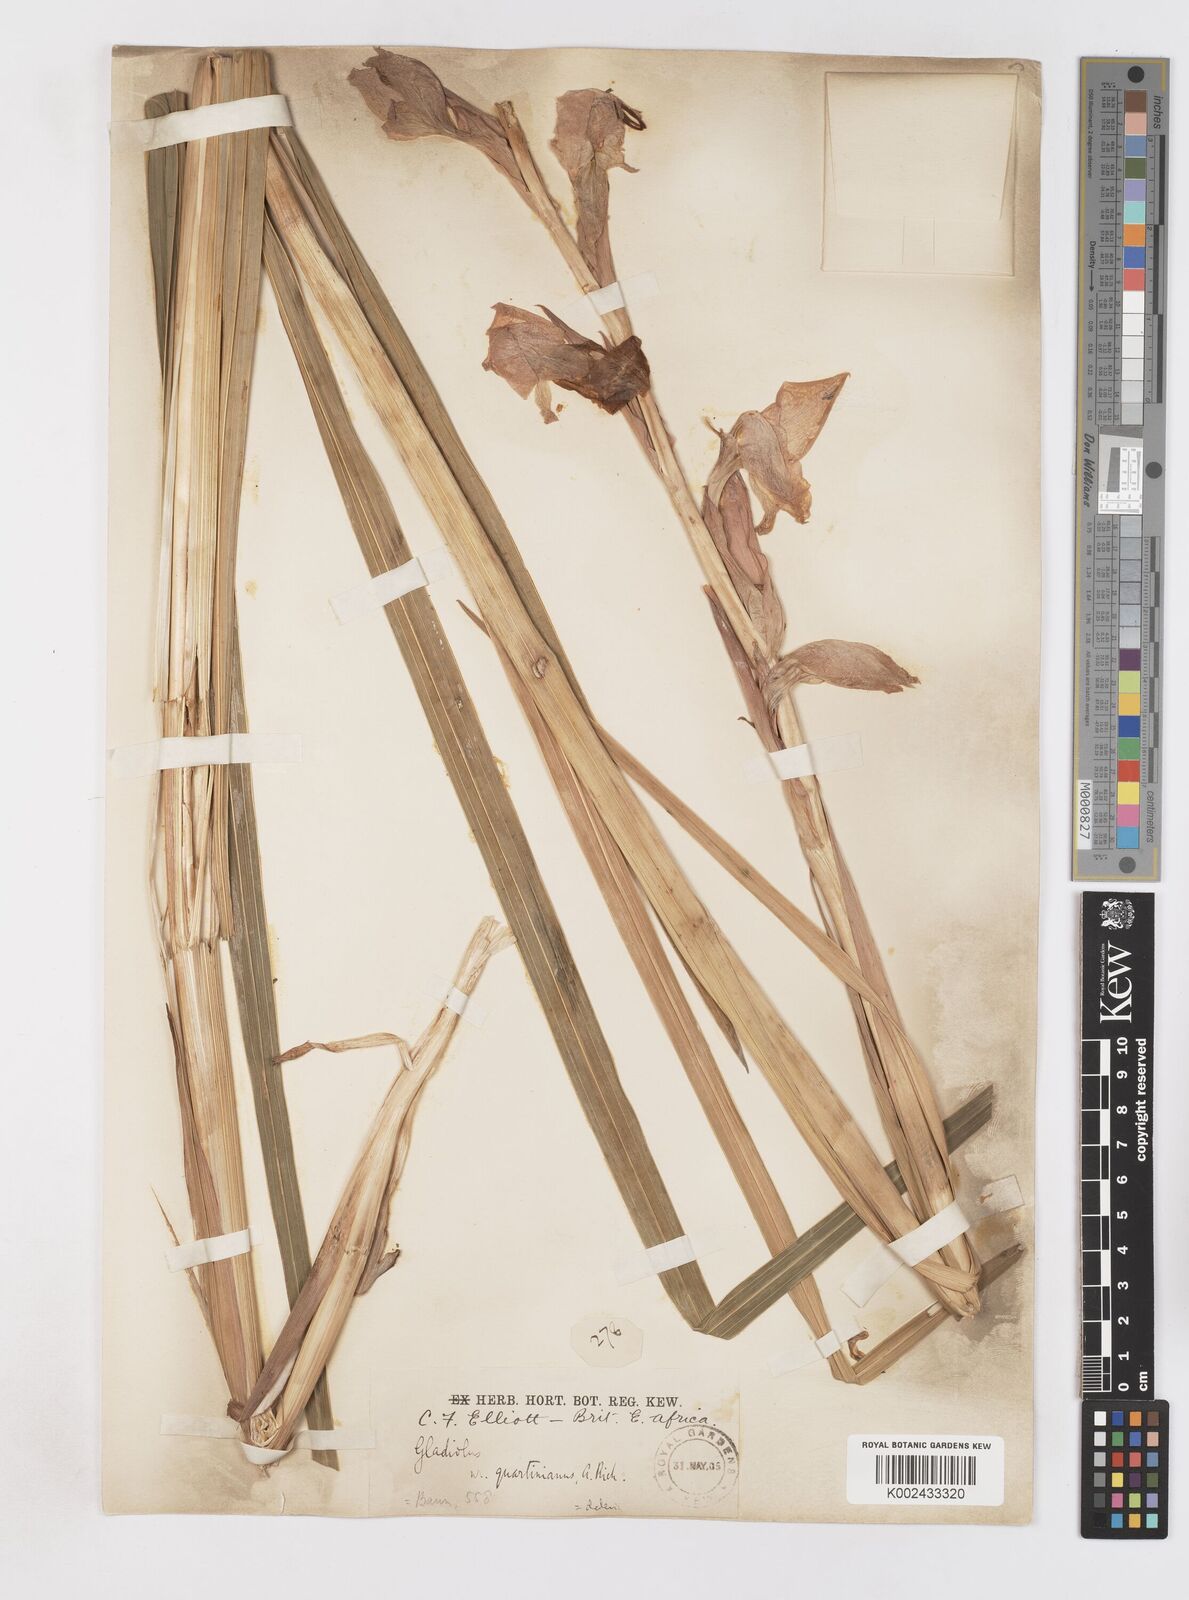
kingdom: Plantae
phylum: Tracheophyta
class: Liliopsida
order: Asparagales
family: Iridaceae
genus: Gladiolus
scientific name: Gladiolus dalenii
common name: Cornflag
